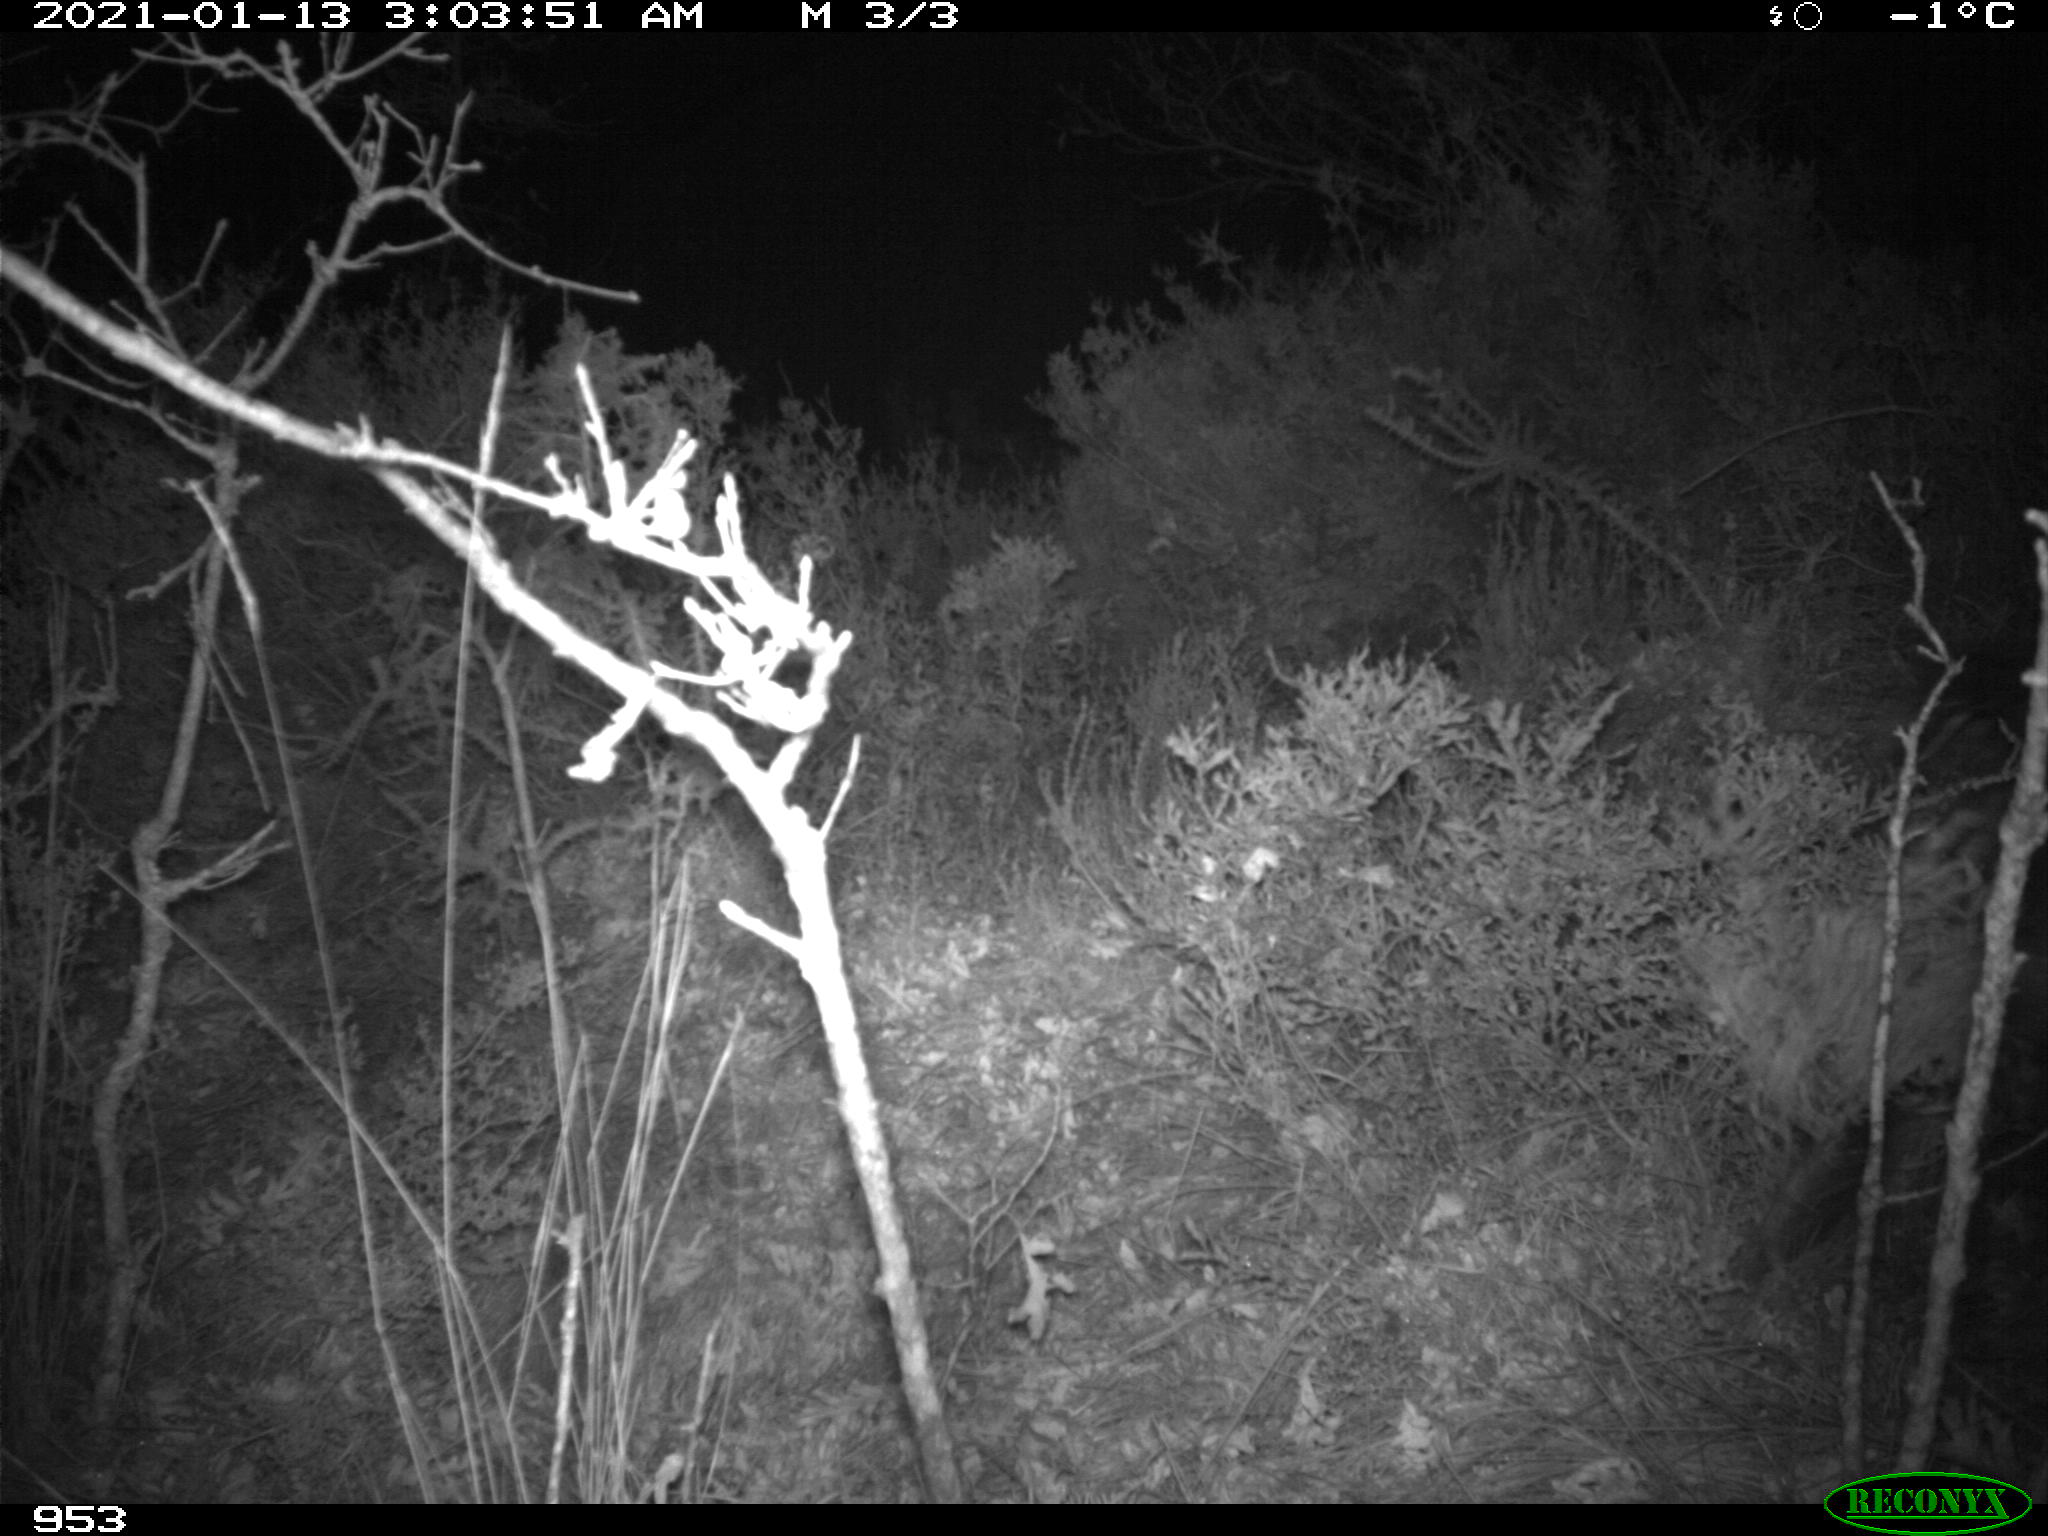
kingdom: Animalia
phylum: Chordata
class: Mammalia
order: Artiodactyla
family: Suidae
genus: Sus
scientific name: Sus scrofa
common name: Wild boar
